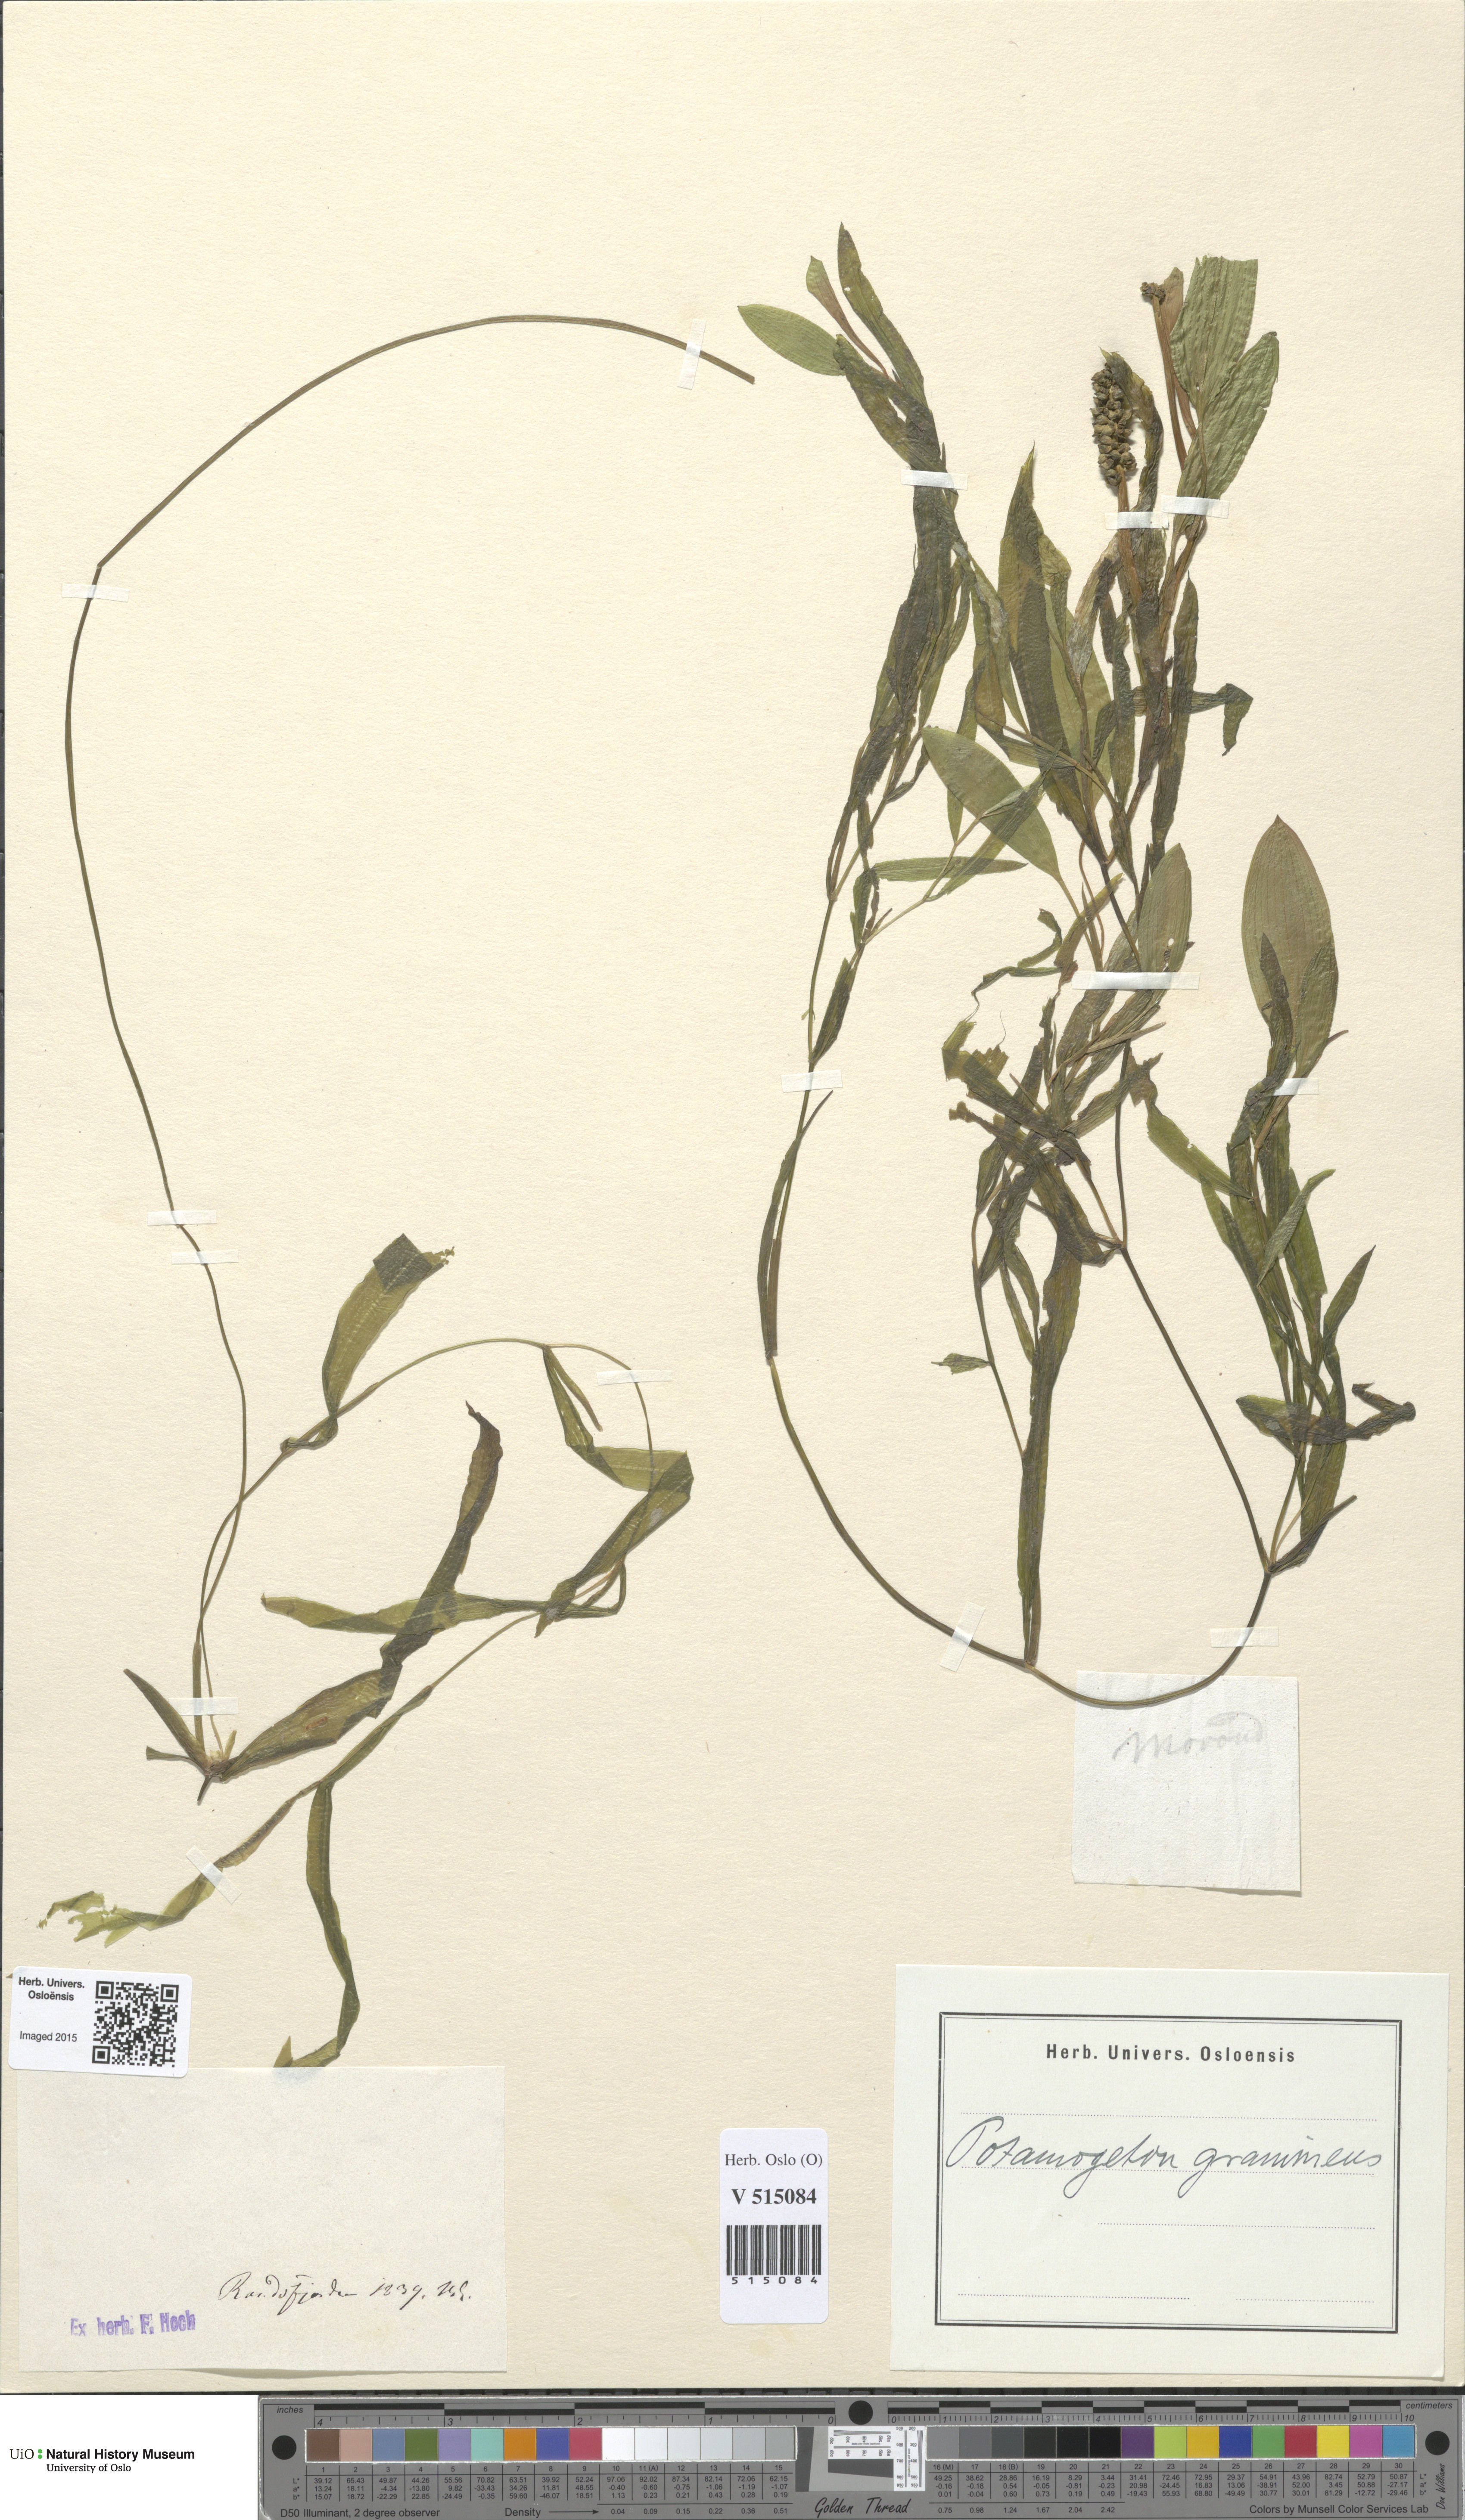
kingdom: Plantae
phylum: Tracheophyta
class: Liliopsida
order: Alismatales
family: Potamogetonaceae
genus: Potamogeton
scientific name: Potamogeton gramineus
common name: Various-leaved pondweed
